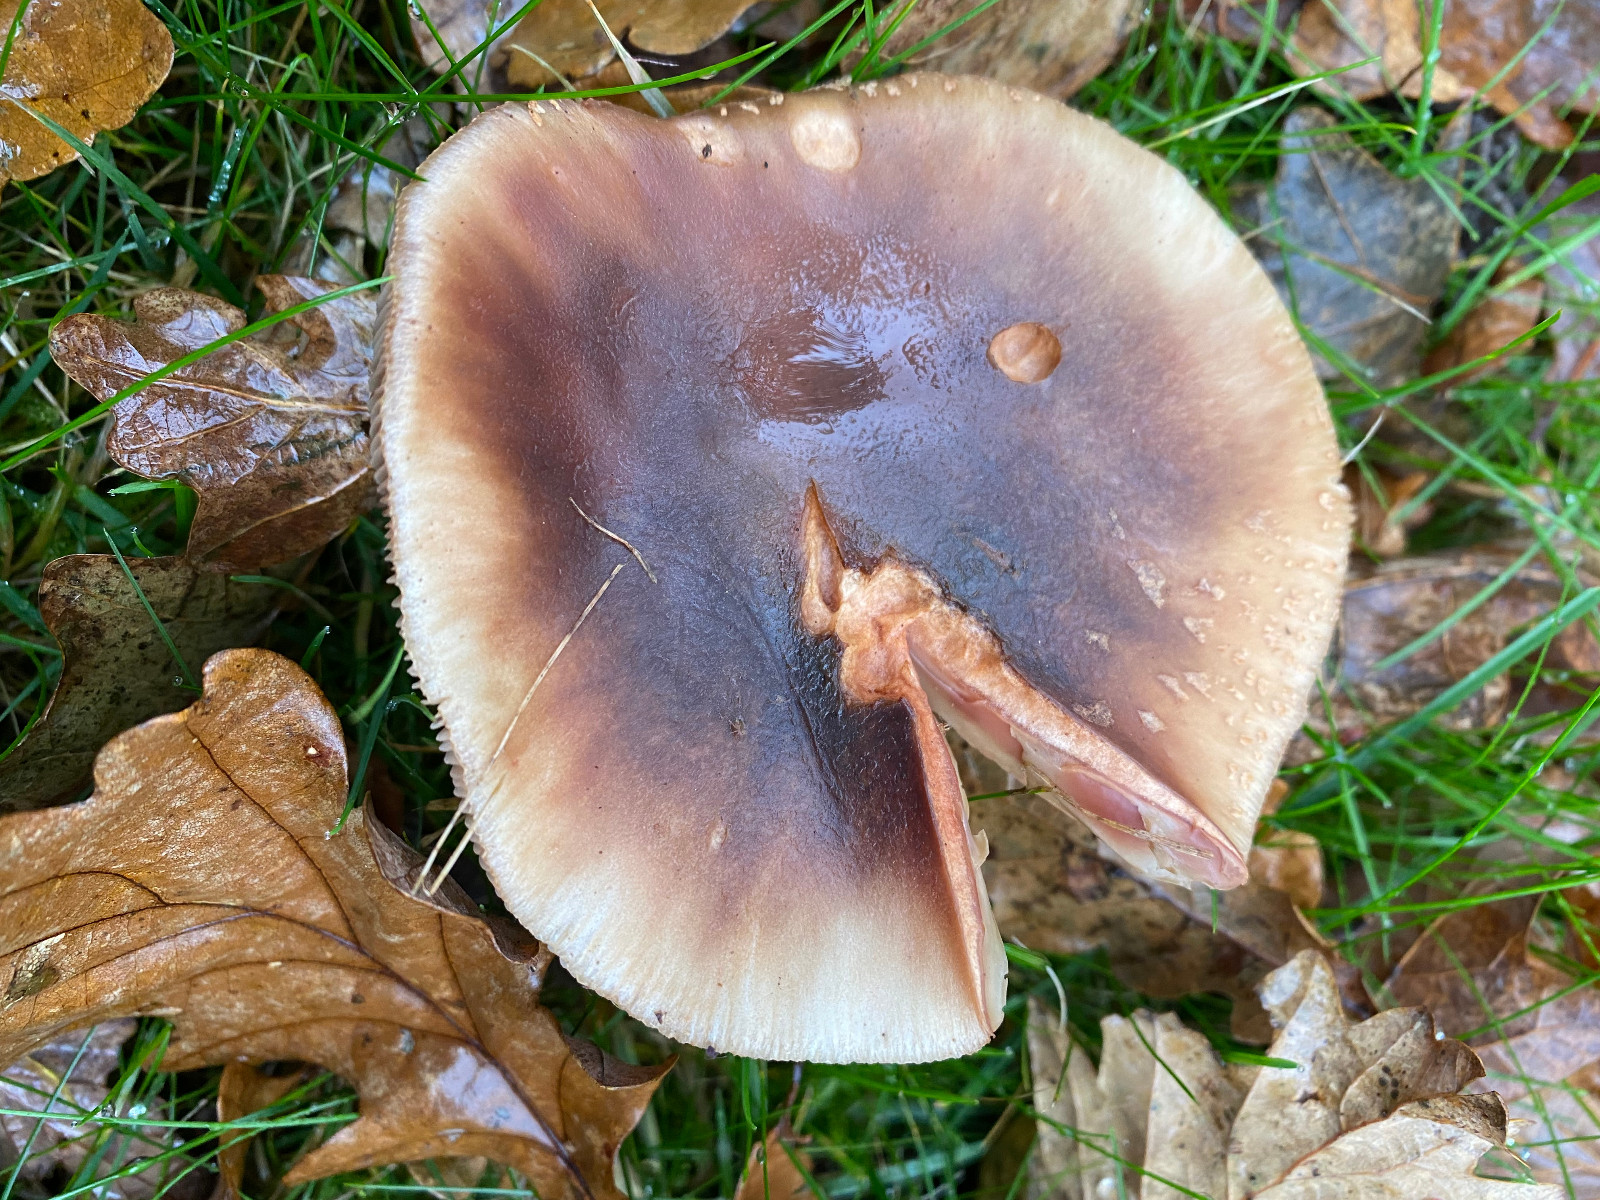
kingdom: Fungi
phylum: Basidiomycota
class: Agaricomycetes
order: Agaricales
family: Amanitaceae
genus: Amanita
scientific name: Amanita rubescens
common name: rødmende fluesvamp
